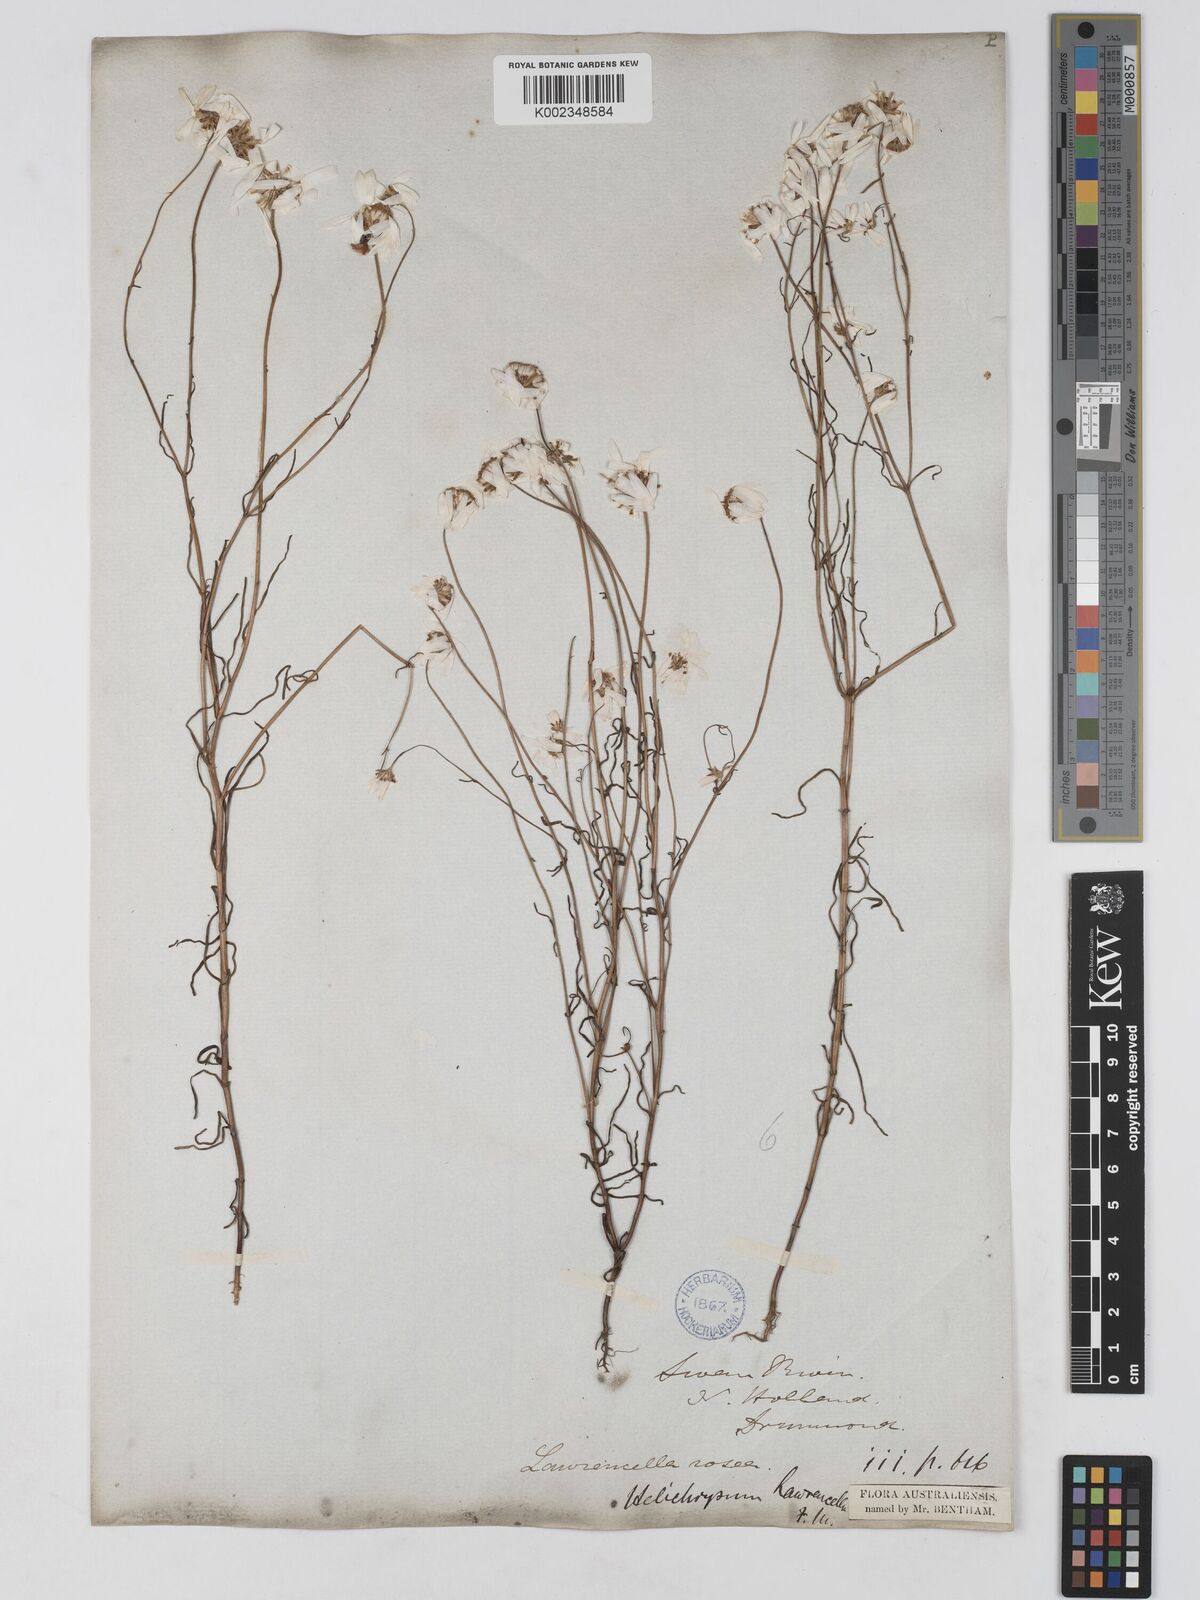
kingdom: Plantae
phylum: Tracheophyta
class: Magnoliopsida
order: Asterales
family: Asteraceae
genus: Lawrencella
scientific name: Lawrencella rosea
